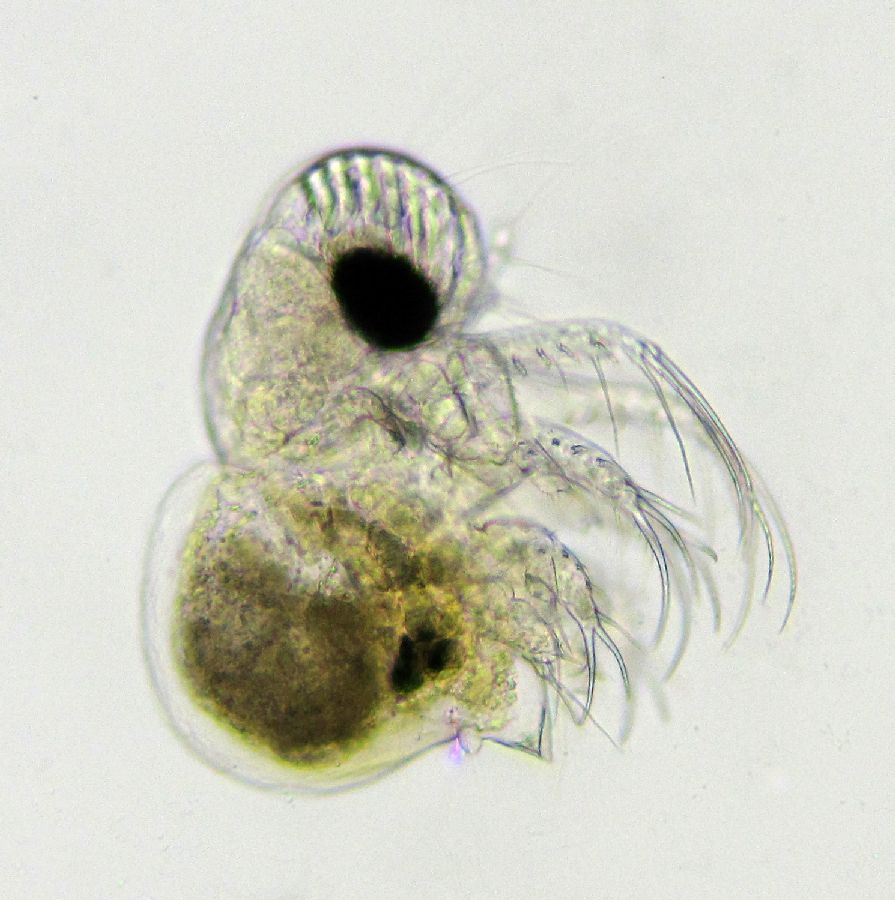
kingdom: Animalia
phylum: Arthropoda
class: Branchiopoda
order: Diplostraca
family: Podonidae
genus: Podon
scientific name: Podon leuckarti
